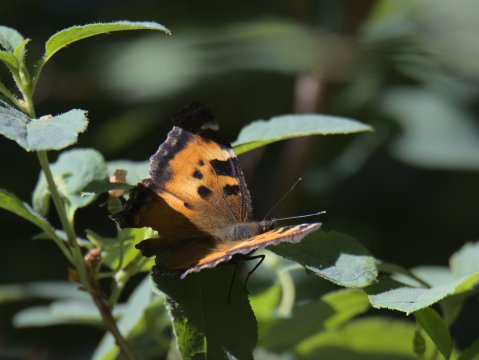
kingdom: Animalia
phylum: Arthropoda
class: Insecta
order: Lepidoptera
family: Nymphalidae
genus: Nymphalis
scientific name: Nymphalis californica
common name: California Tortoiseshell
